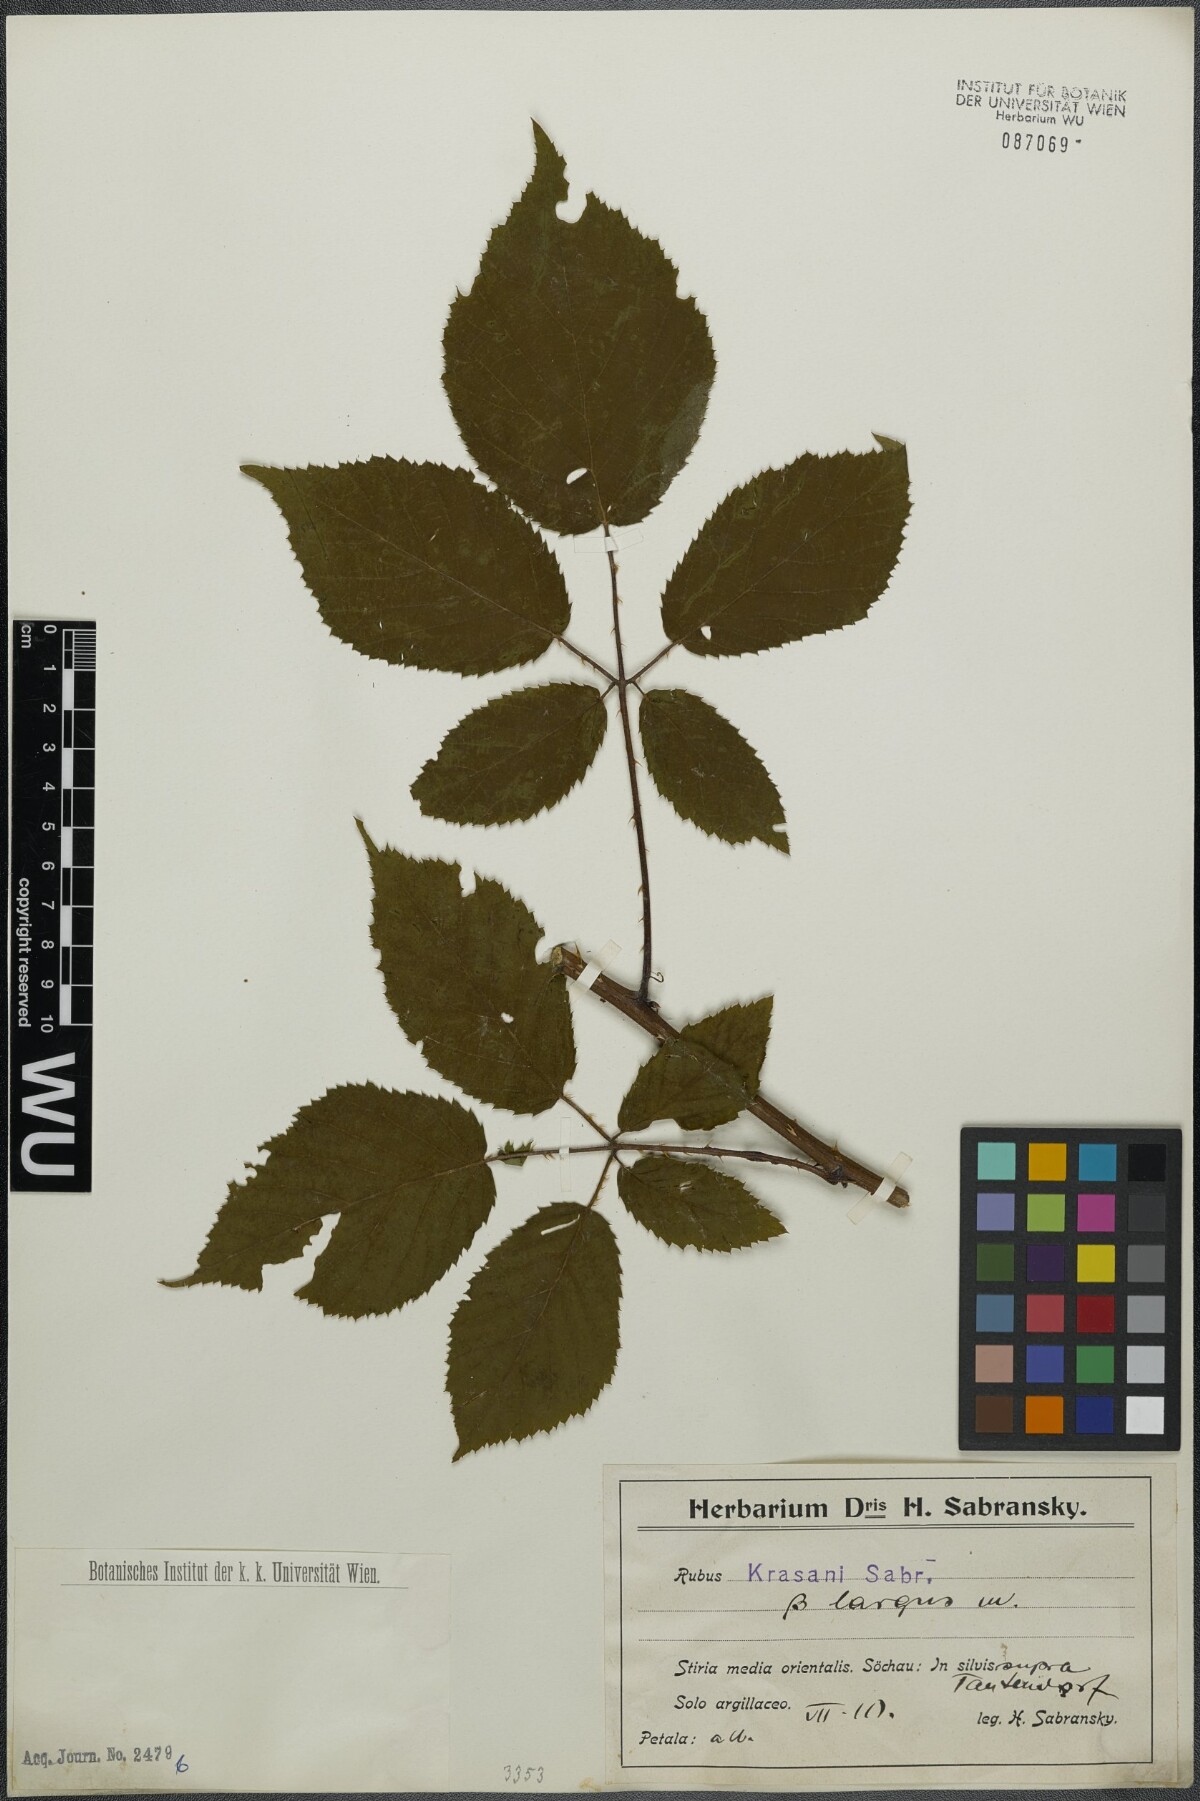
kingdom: Plantae
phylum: Tracheophyta
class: Magnoliopsida
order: Rosales
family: Rosaceae
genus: Rubus
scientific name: Rubus schleicheri
